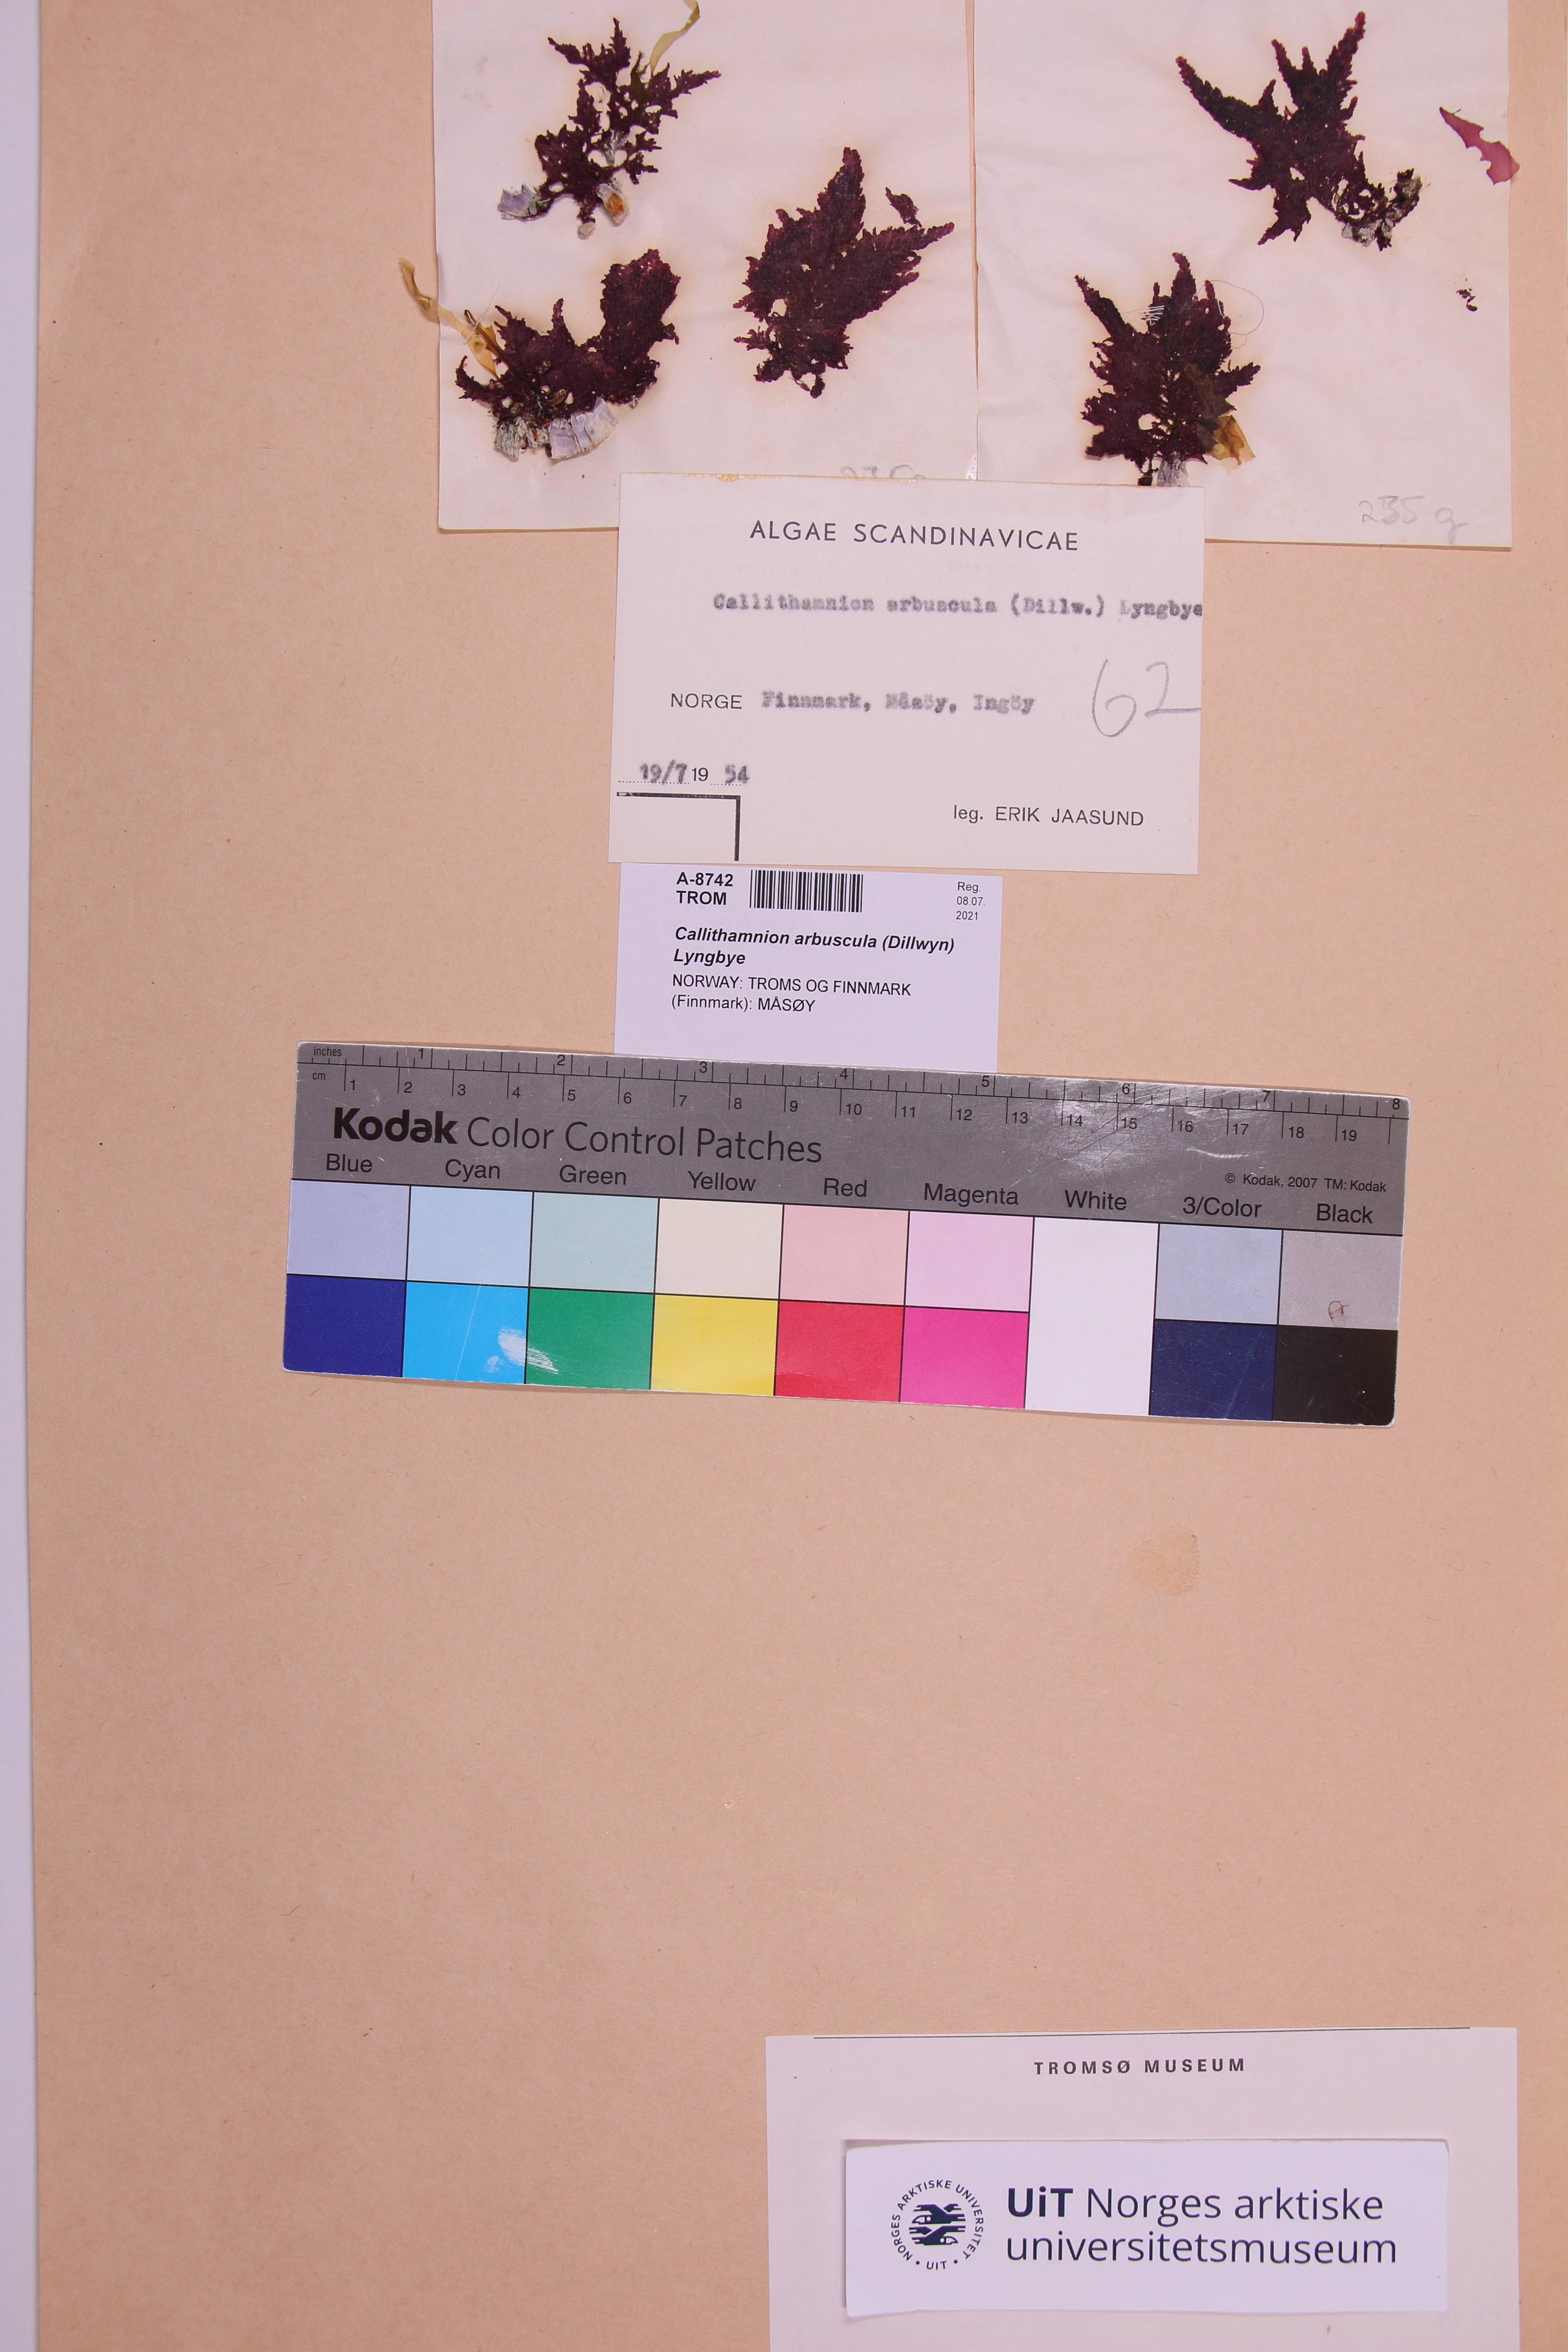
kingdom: Plantae
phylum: Rhodophyta
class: Florideophyceae
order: Ceramiales
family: Callithamniaceae
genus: Gaillona
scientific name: Gaillona seposita
